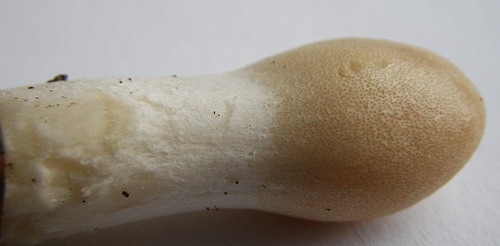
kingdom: Fungi
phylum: Ascomycota
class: Sordariomycetes
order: Hypocreales
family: Hypocreaceae
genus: Trichoderma
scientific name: Trichoderma leucopus
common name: lysstokket kødkerne
